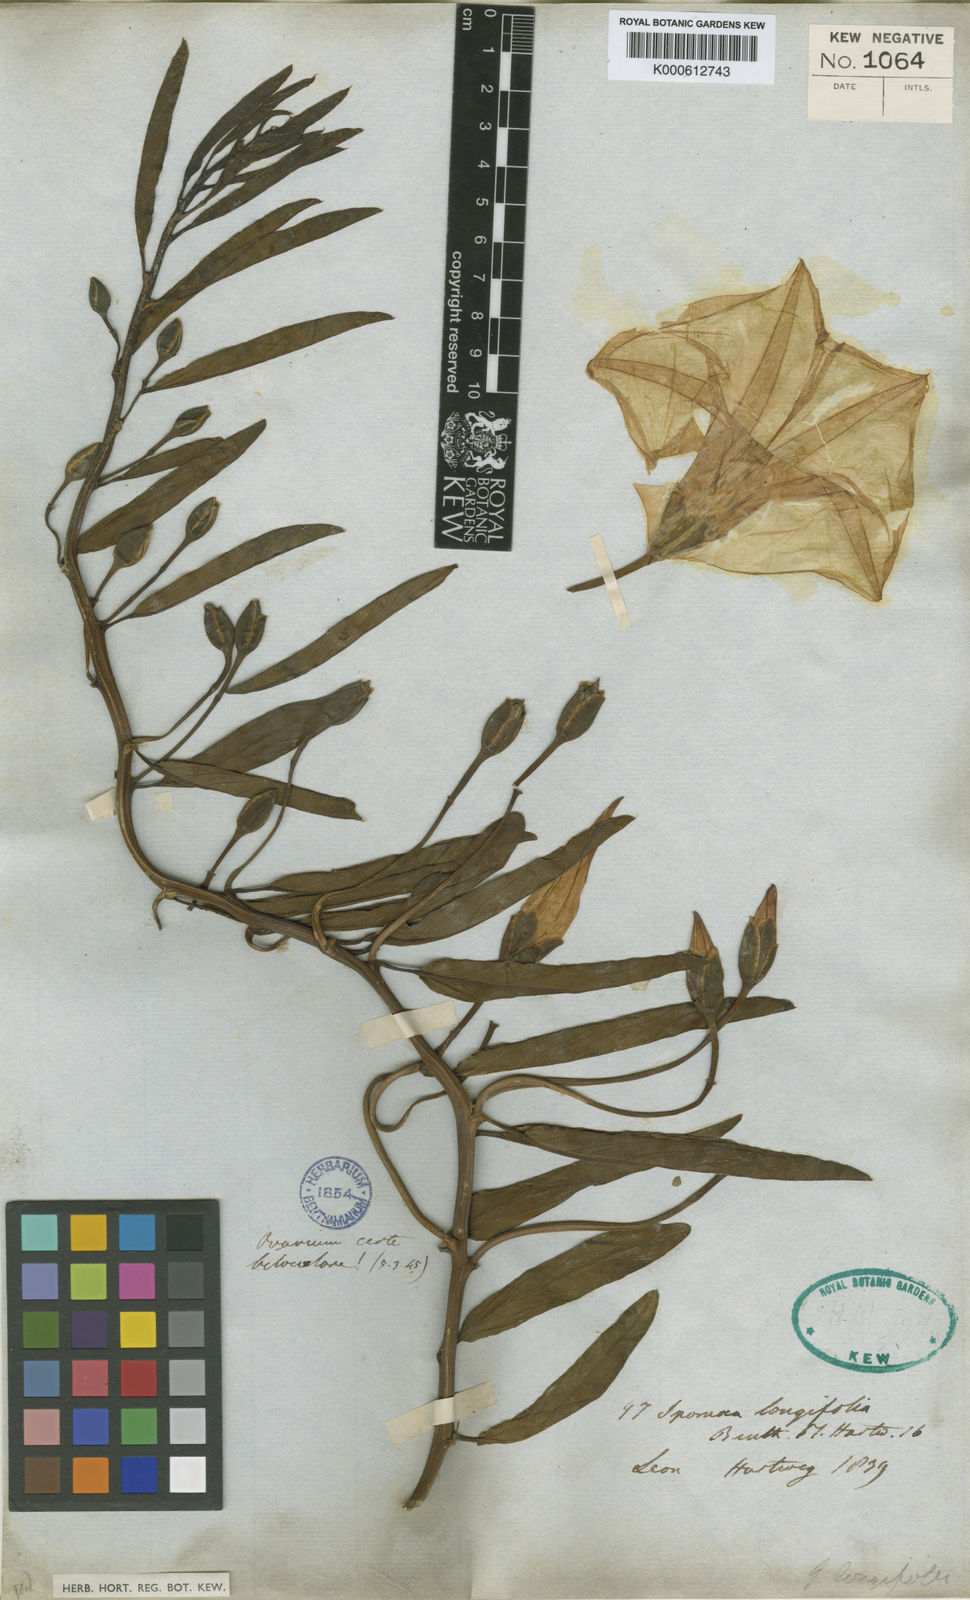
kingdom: Plantae
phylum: Tracheophyta
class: Magnoliopsida
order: Solanales
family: Convolvulaceae
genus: Ipomoea
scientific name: Ipomoea violacea
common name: Beach moonflower
